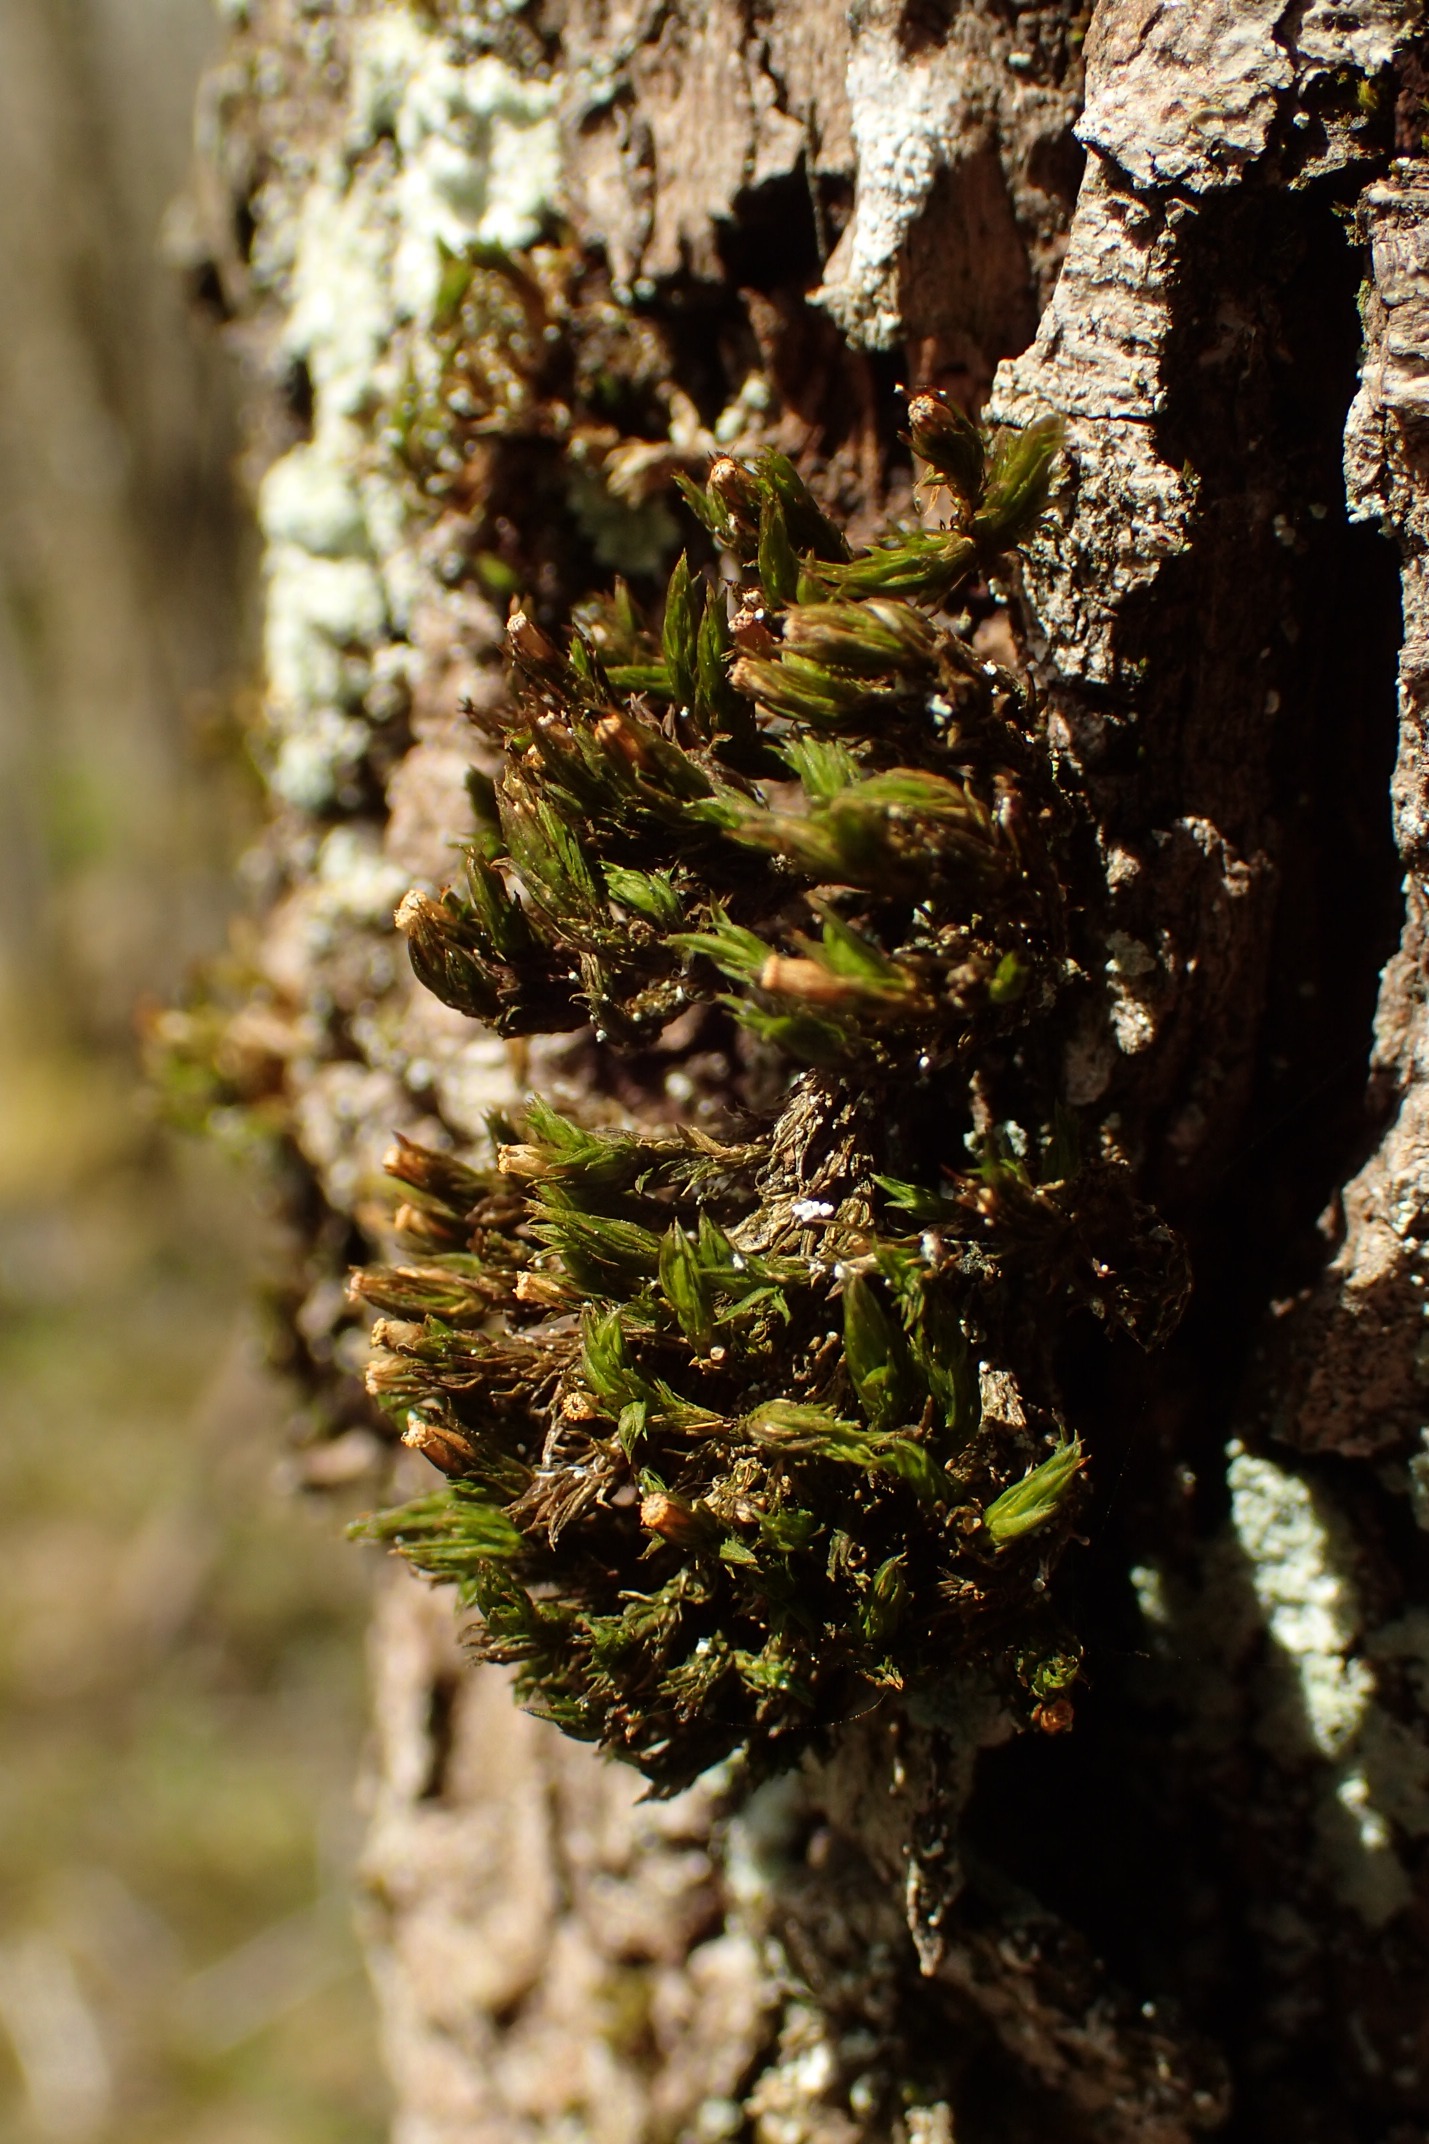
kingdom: Plantae
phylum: Bryophyta
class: Bryopsida
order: Orthotrichales
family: Orthotrichaceae
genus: Lewinskya
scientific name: Lewinskya striata
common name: Glatkapslet furehætte
